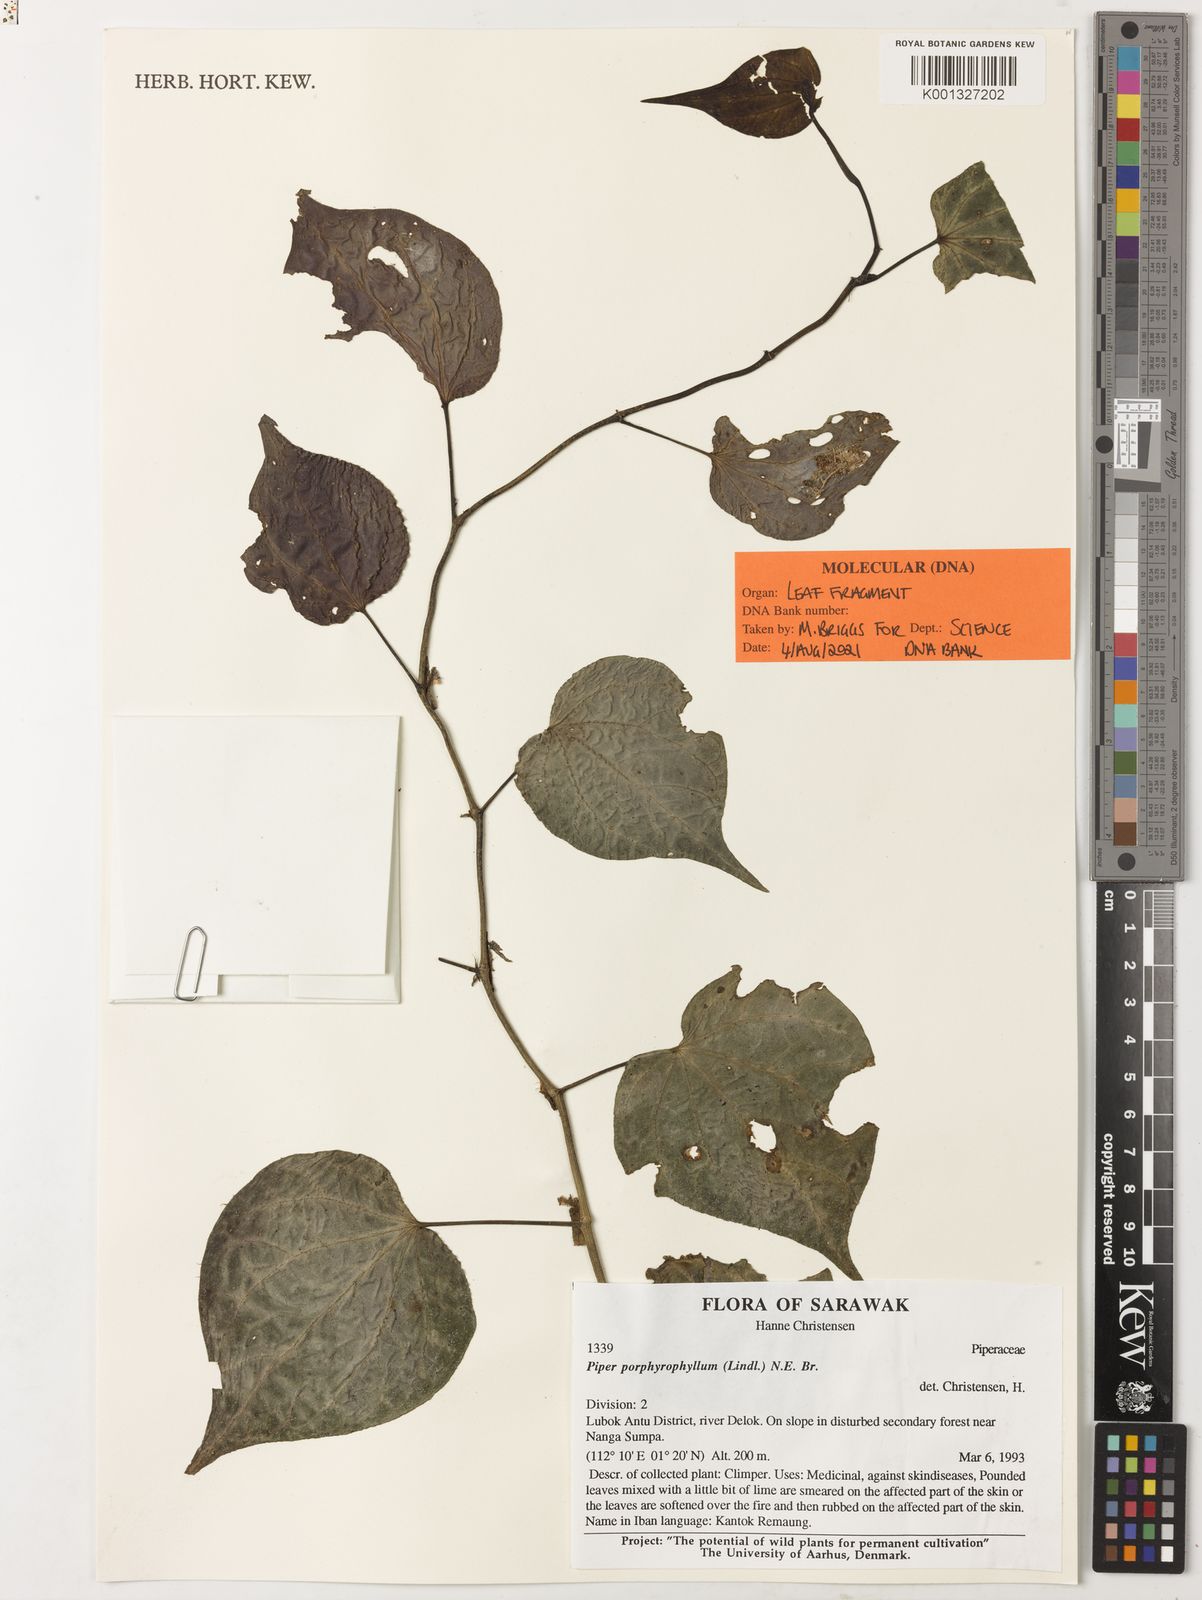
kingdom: Plantae
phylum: Tracheophyta
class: Magnoliopsida
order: Piperales
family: Piperaceae
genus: Piper
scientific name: Piper porphyrophyllum
